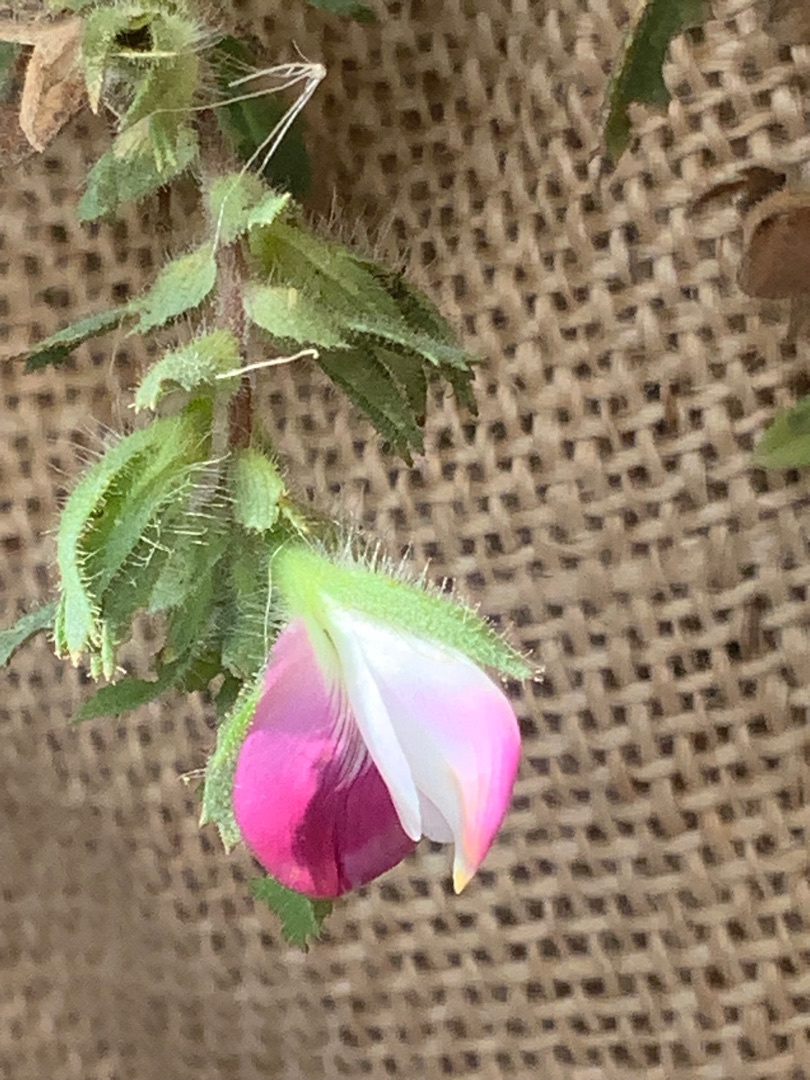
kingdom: Plantae
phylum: Tracheophyta
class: Magnoliopsida
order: Fabales
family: Fabaceae
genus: Ononis
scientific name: Ononis spinosa
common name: Mark-krageklo
